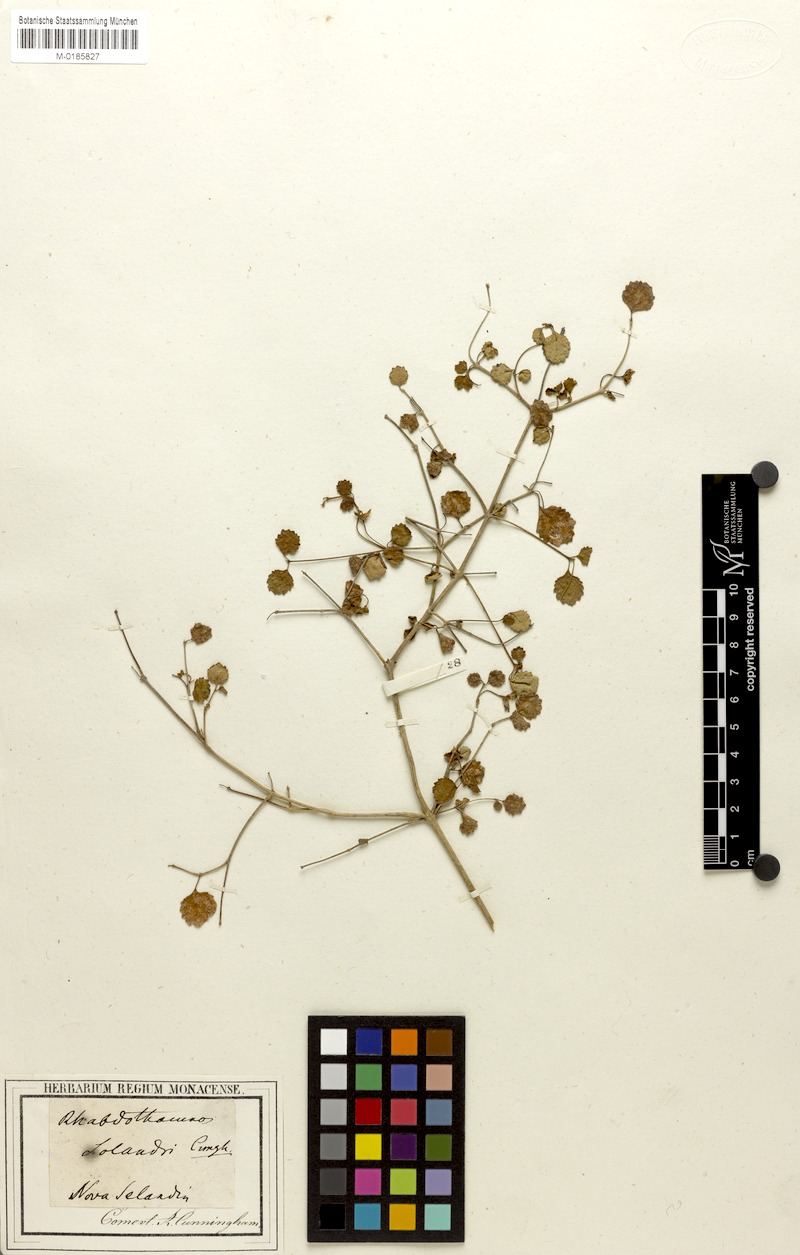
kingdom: Plantae
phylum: Tracheophyta
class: Magnoliopsida
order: Lamiales
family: Gesneriaceae
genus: Rhabdothamnus
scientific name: Rhabdothamnus solandri
